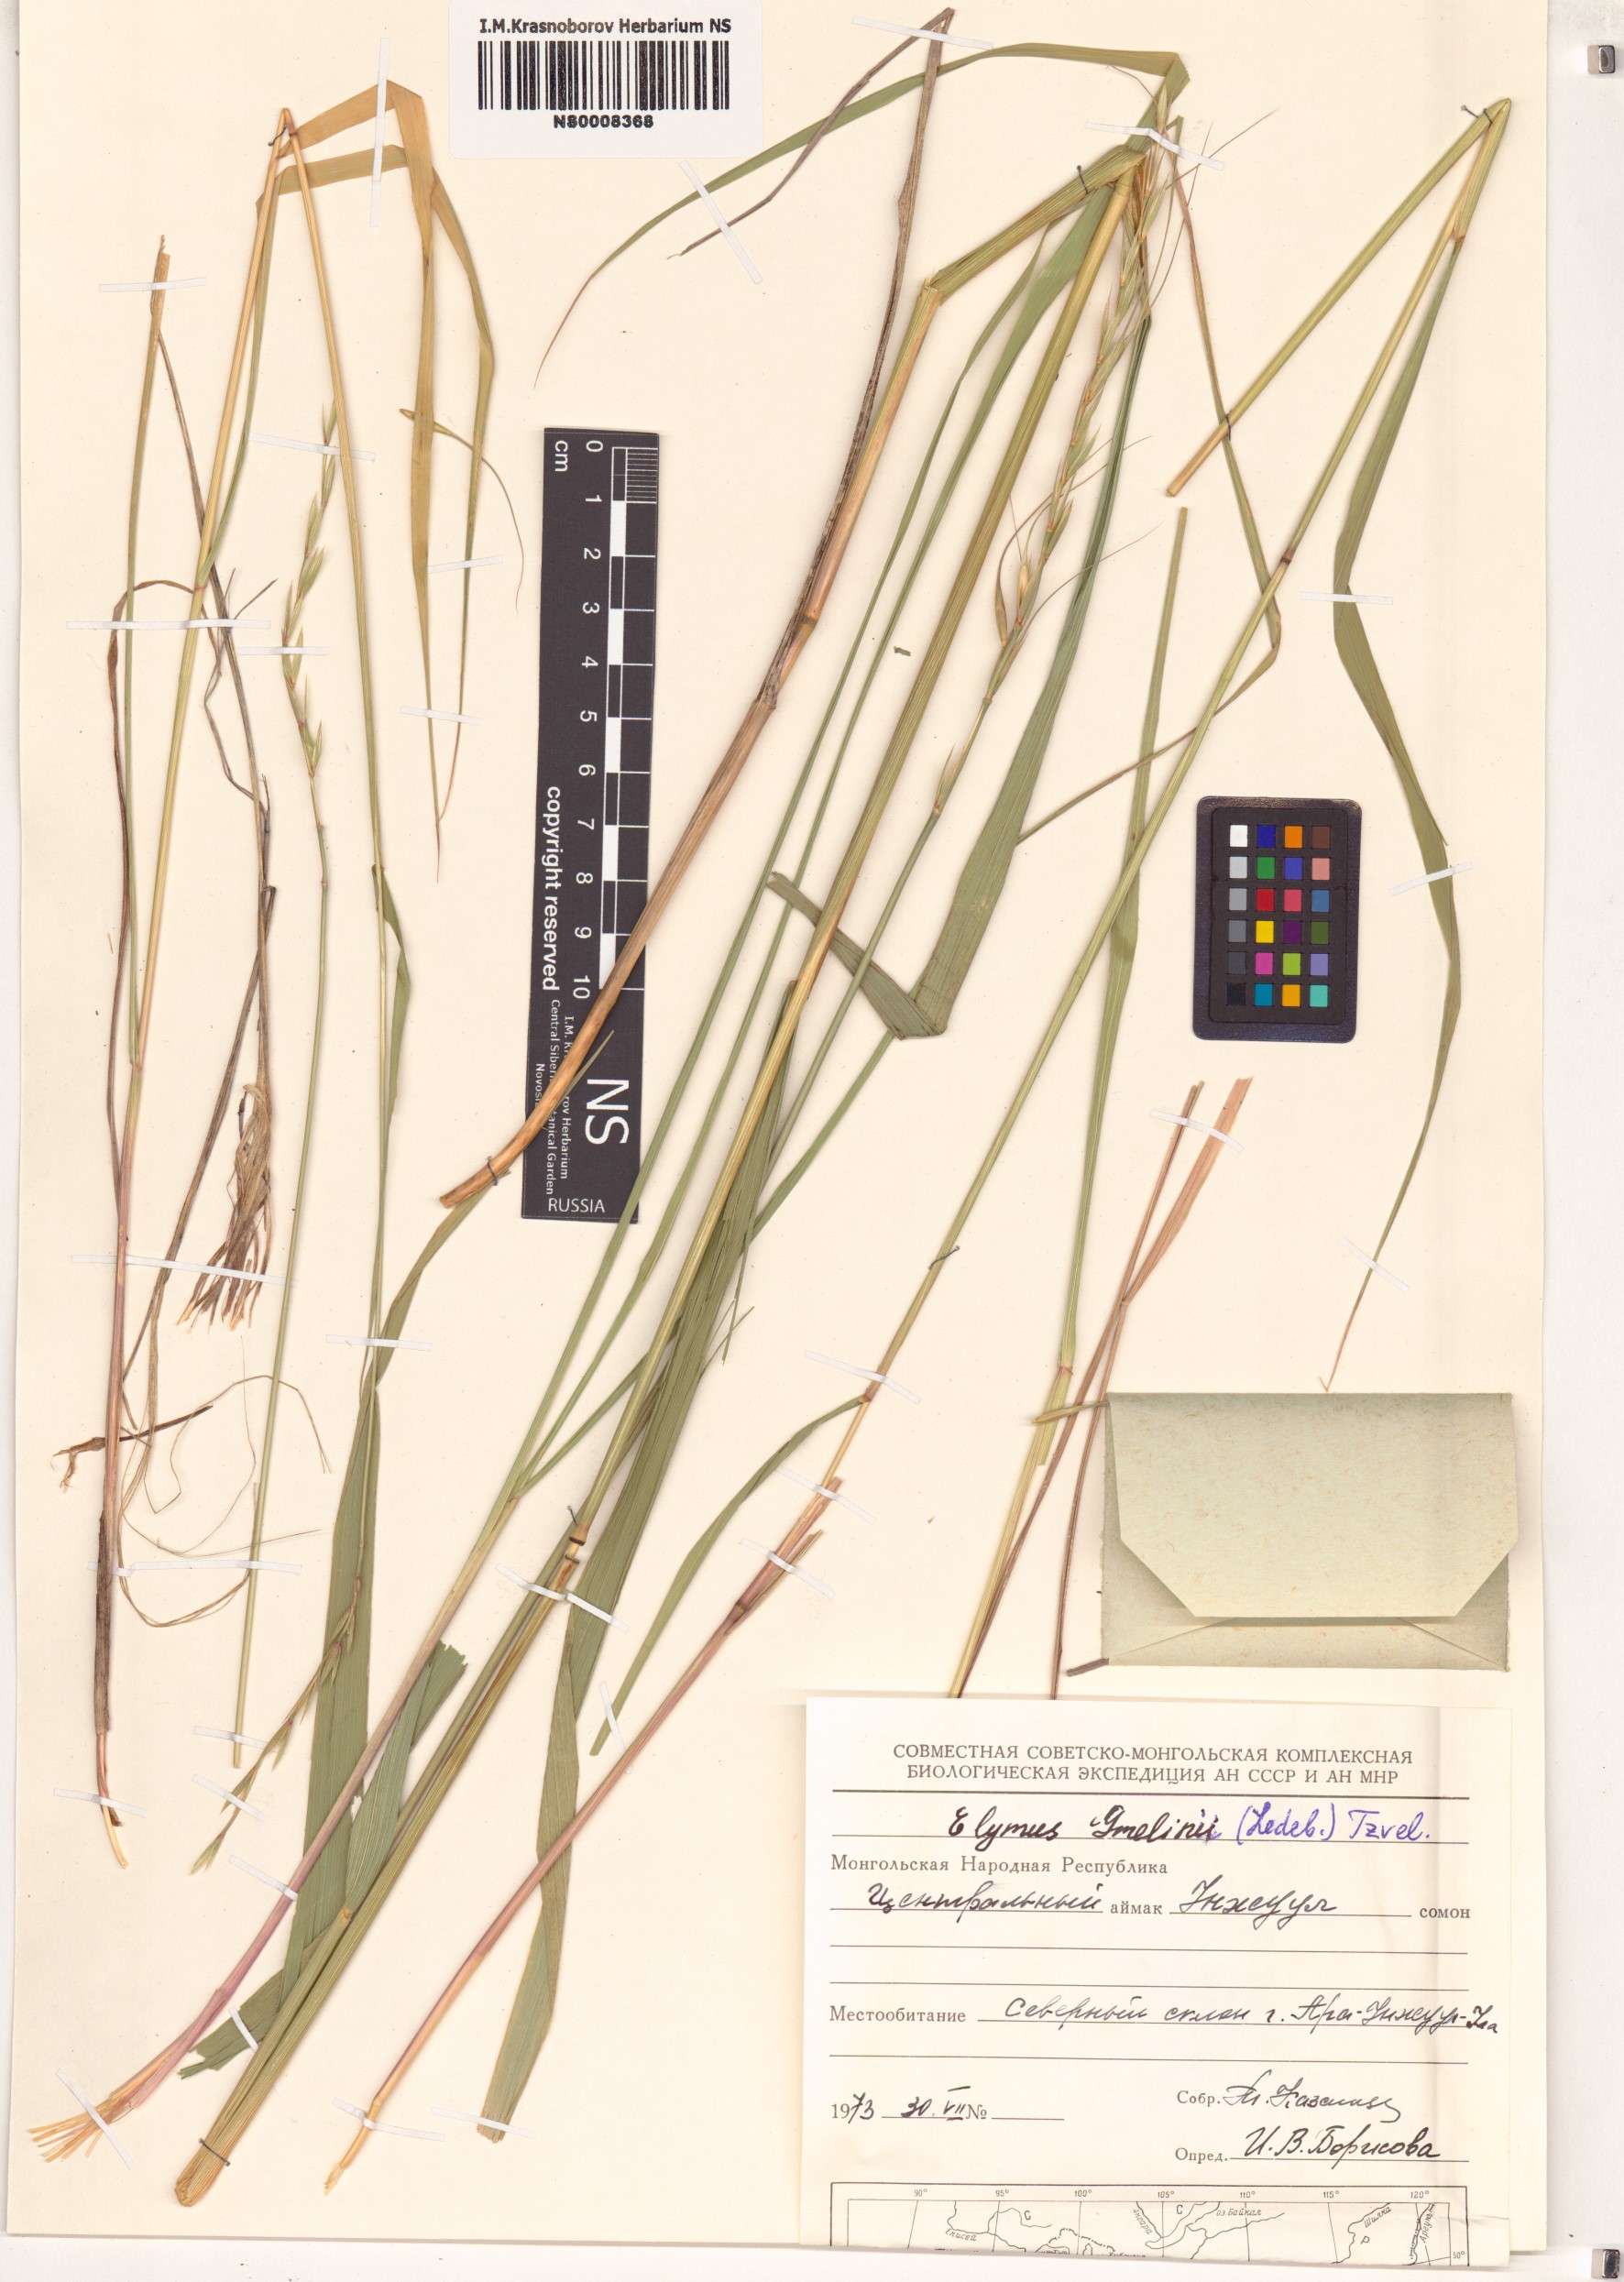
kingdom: Plantae
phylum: Tracheophyta
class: Liliopsida
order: Poales
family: Poaceae
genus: Elymus
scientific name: Elymus gmelinii
